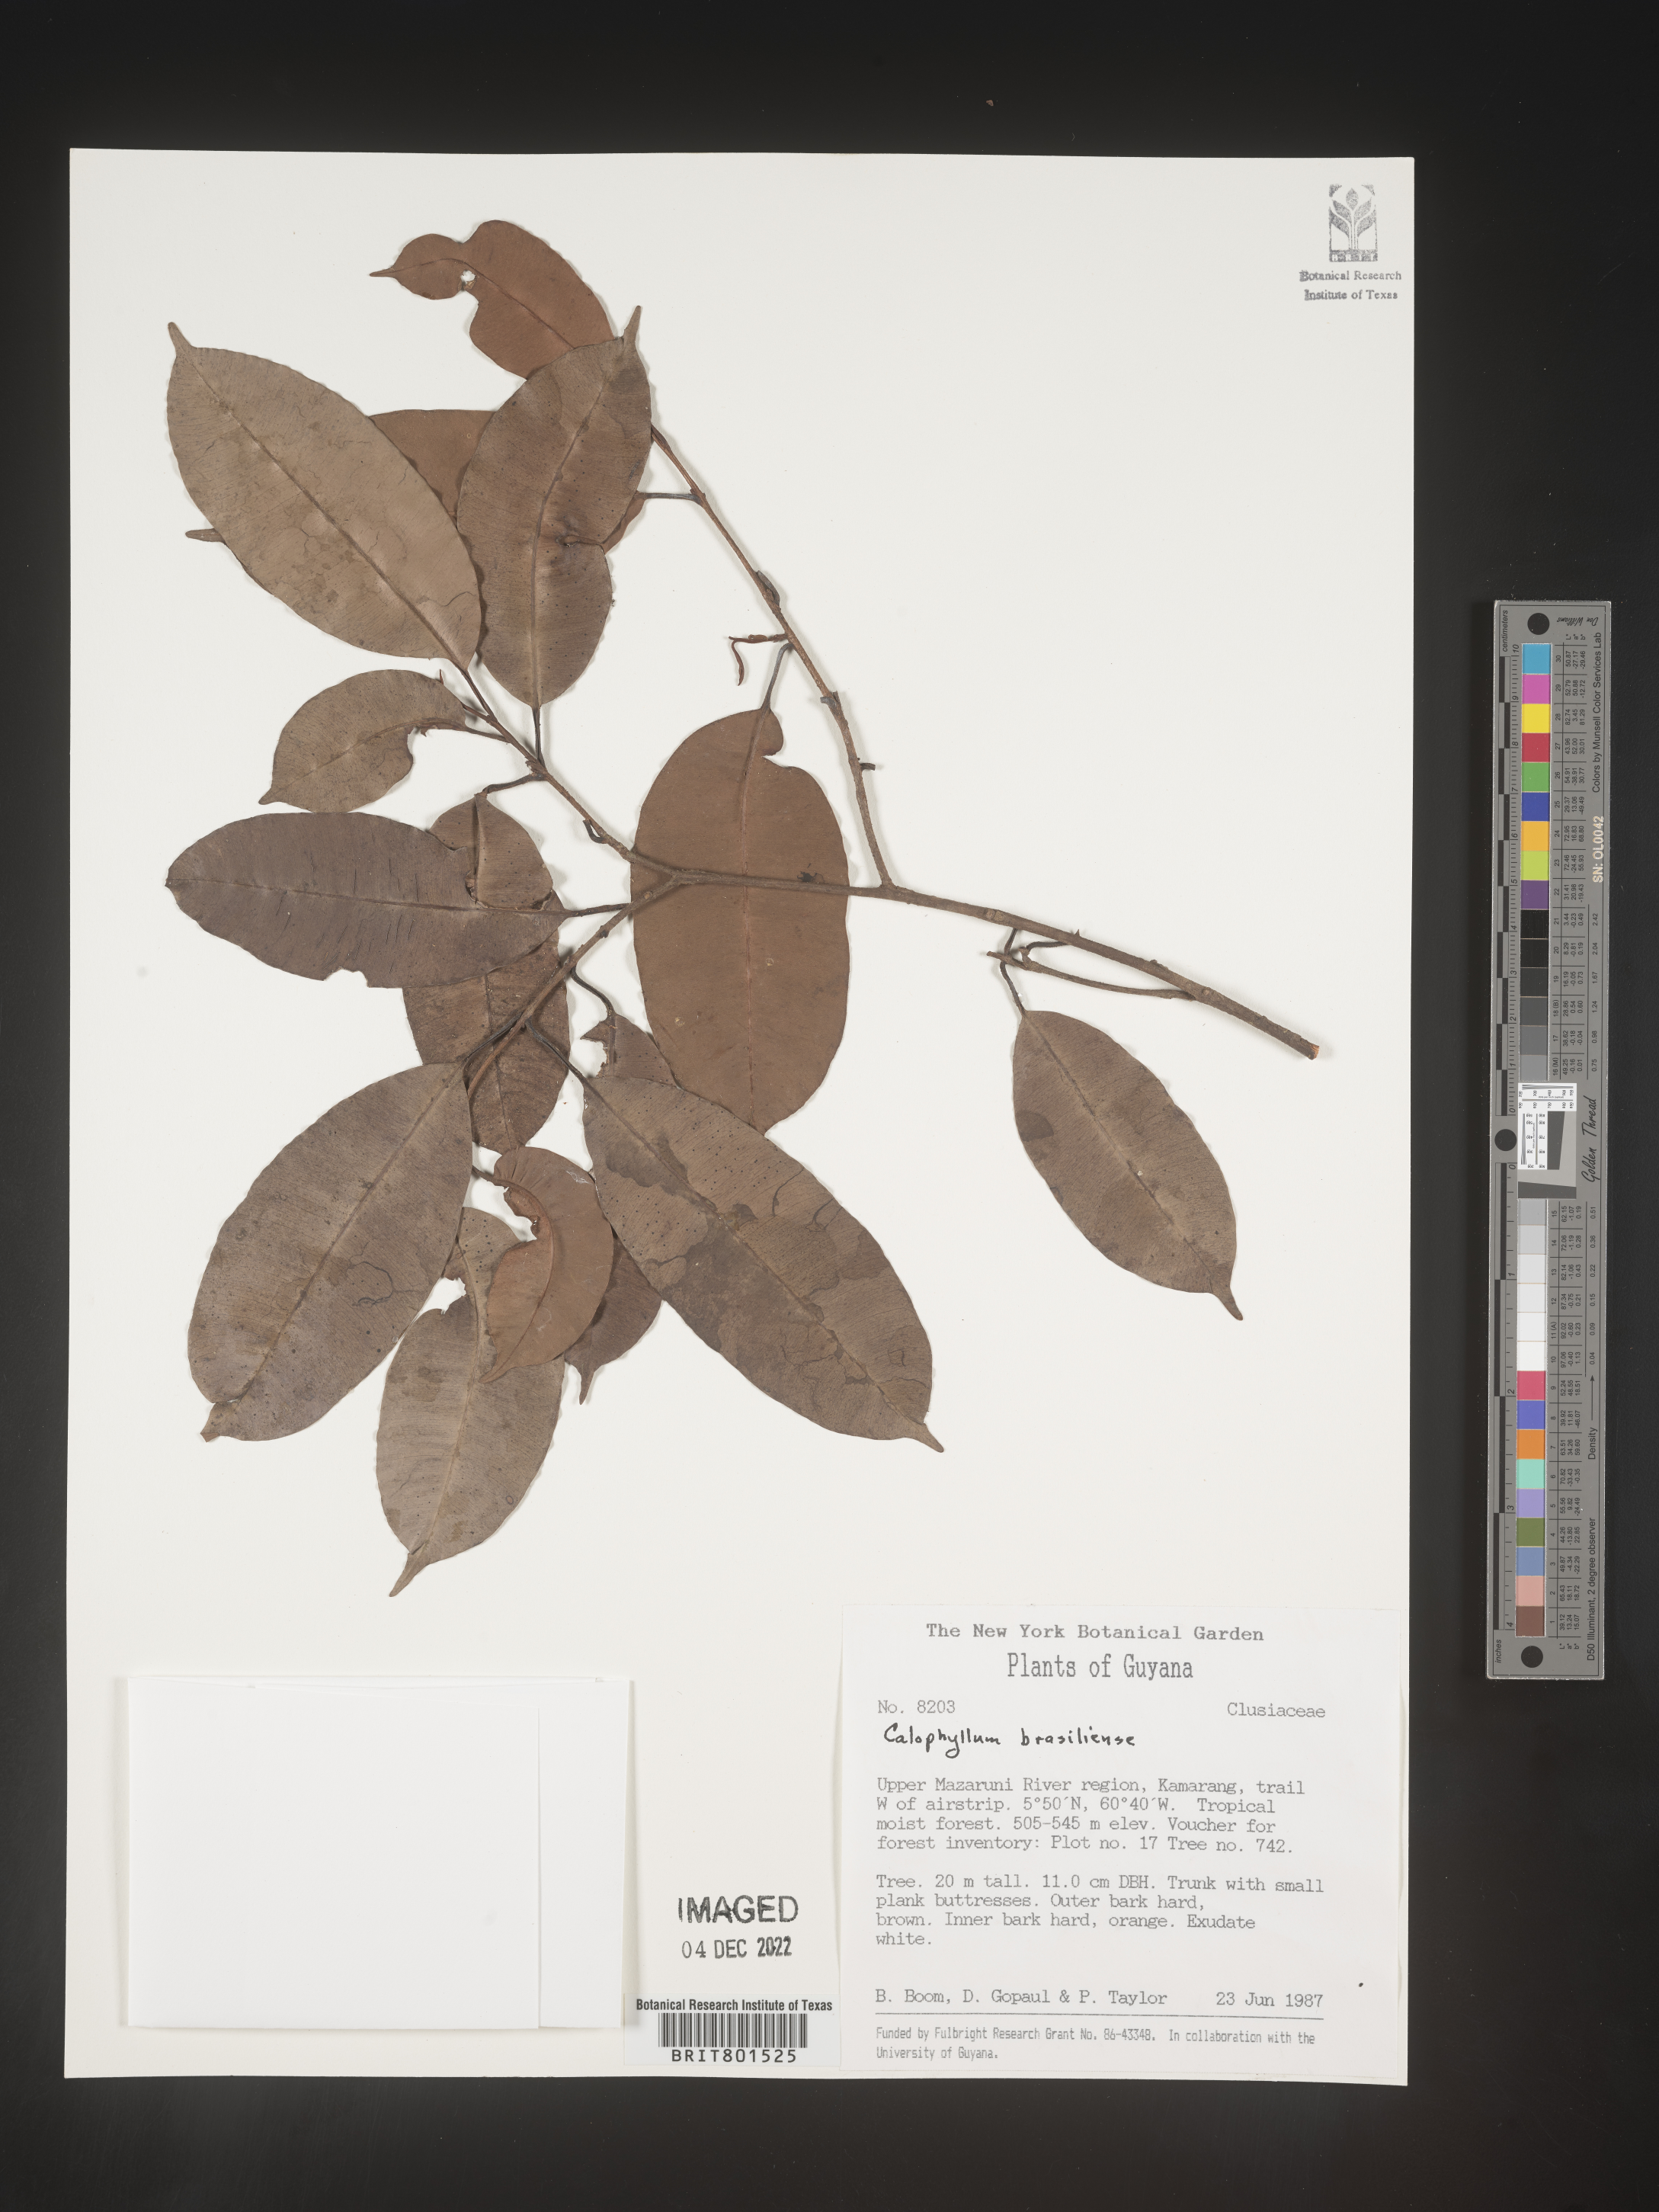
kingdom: Plantae
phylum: Tracheophyta
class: Magnoliopsida
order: Malpighiales
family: Calophyllaceae
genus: Calophyllum
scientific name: Calophyllum brasiliense
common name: Santa maria
